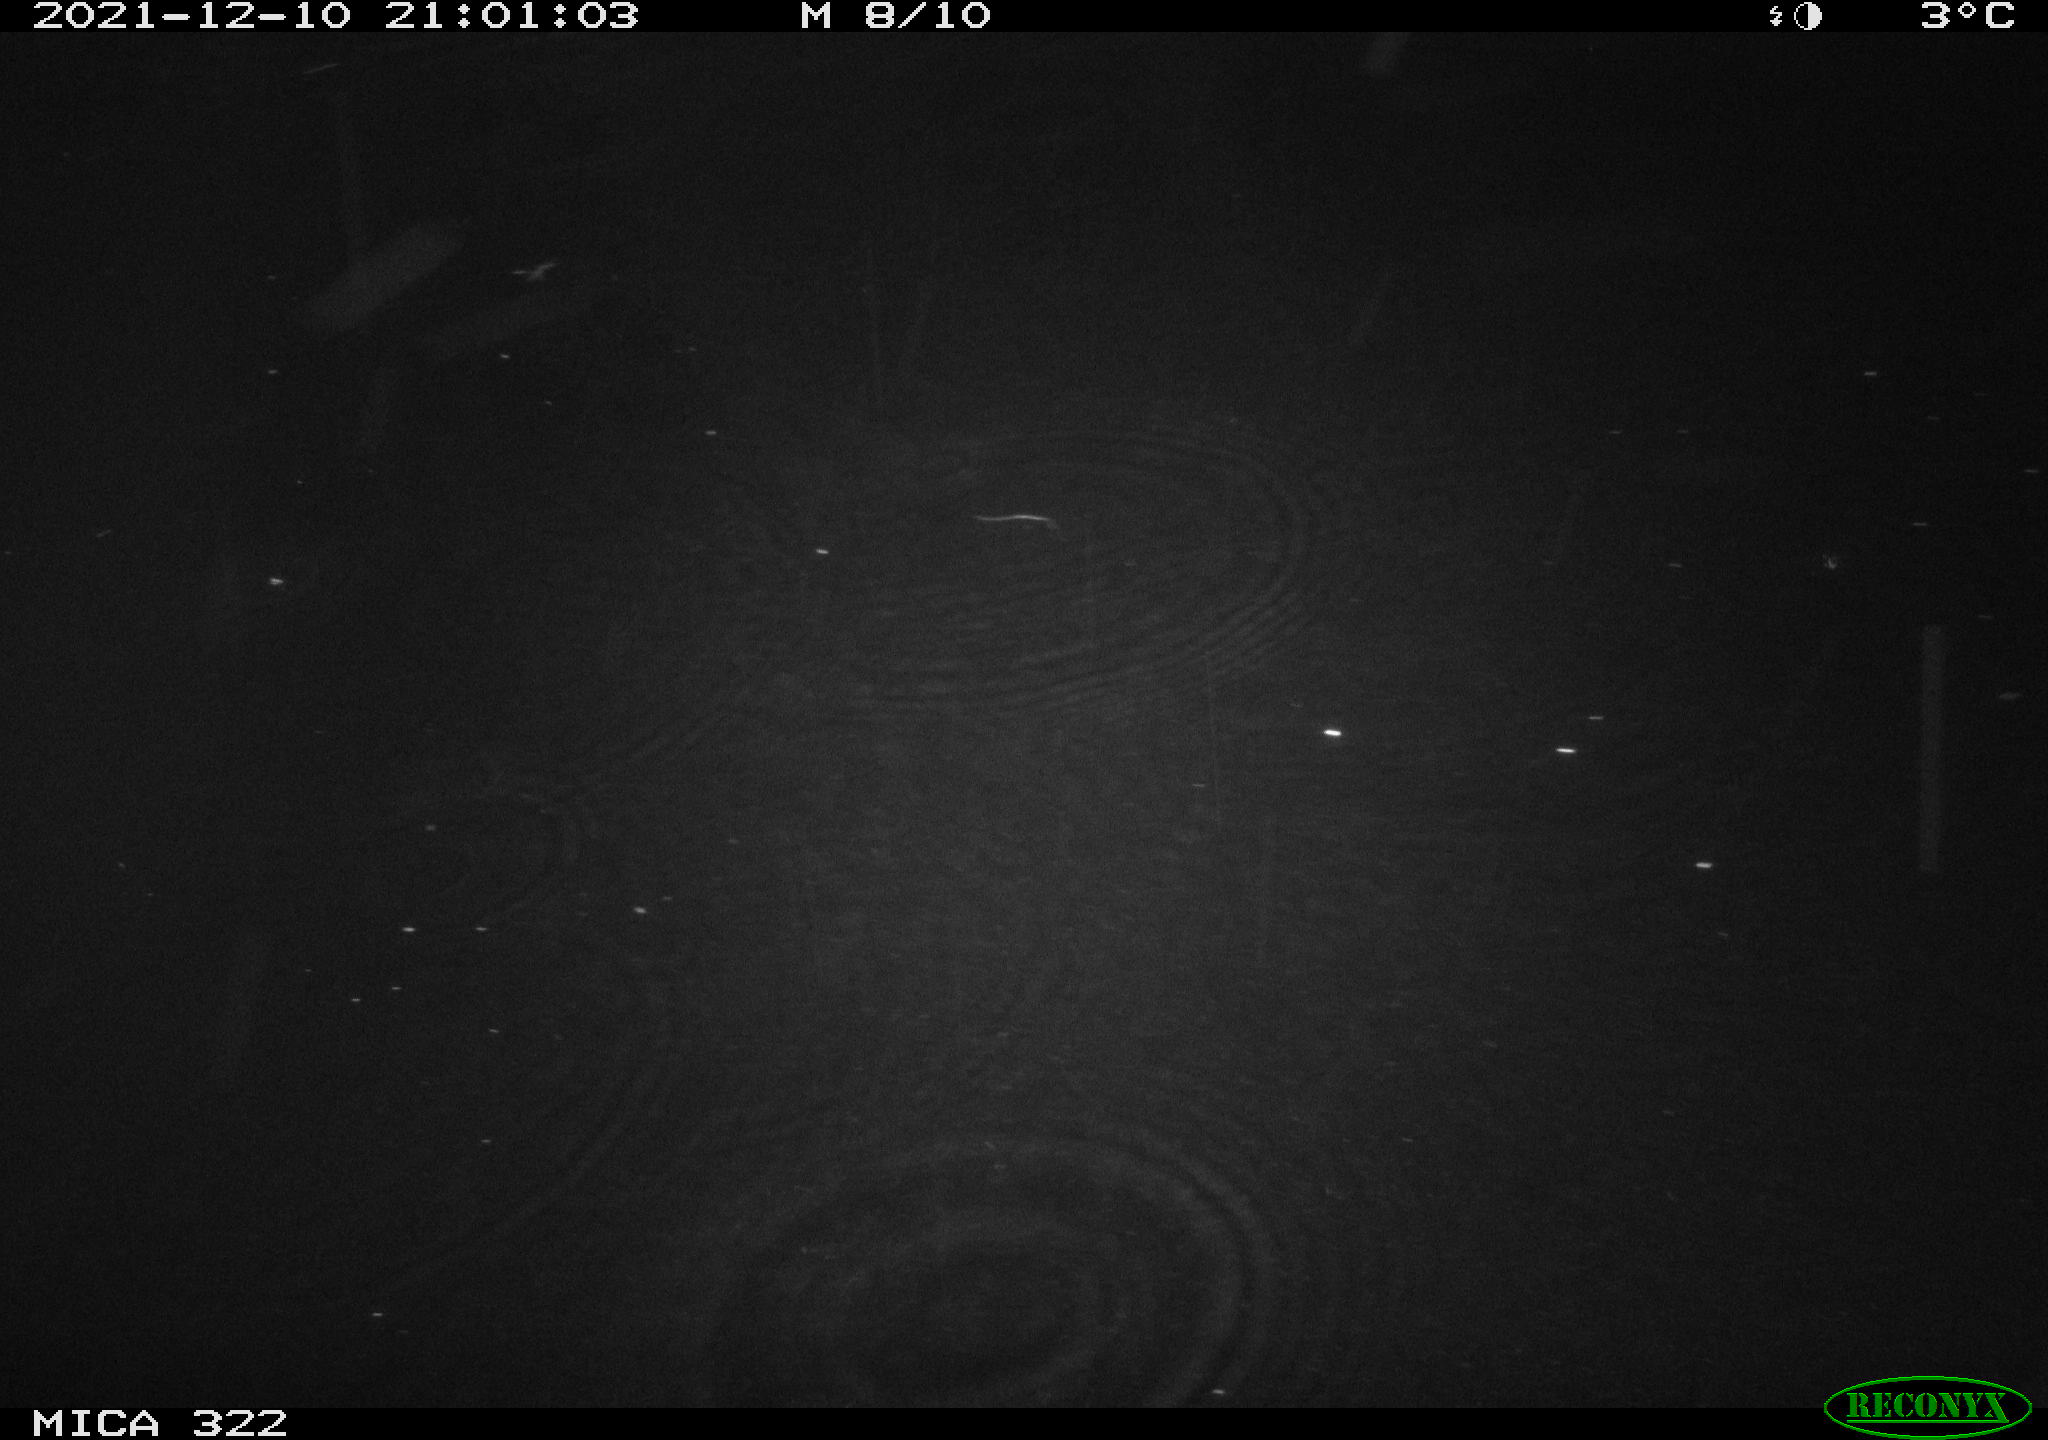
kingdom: Animalia
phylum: Chordata
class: Mammalia
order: Rodentia
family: Muridae
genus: Rattus
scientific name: Rattus norvegicus
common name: Brown rat
